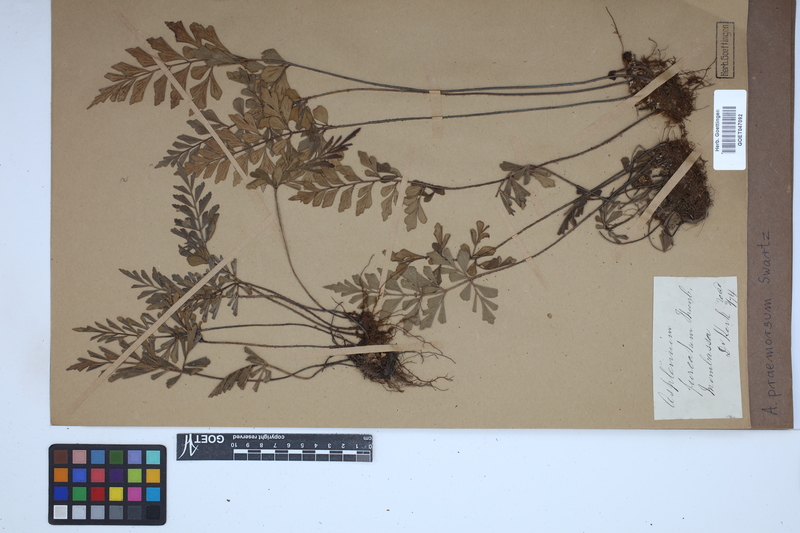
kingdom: Plantae
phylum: Tracheophyta
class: Polypodiopsida
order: Polypodiales
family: Aspleniaceae
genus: Asplenium
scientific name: Asplenium praemorsum
